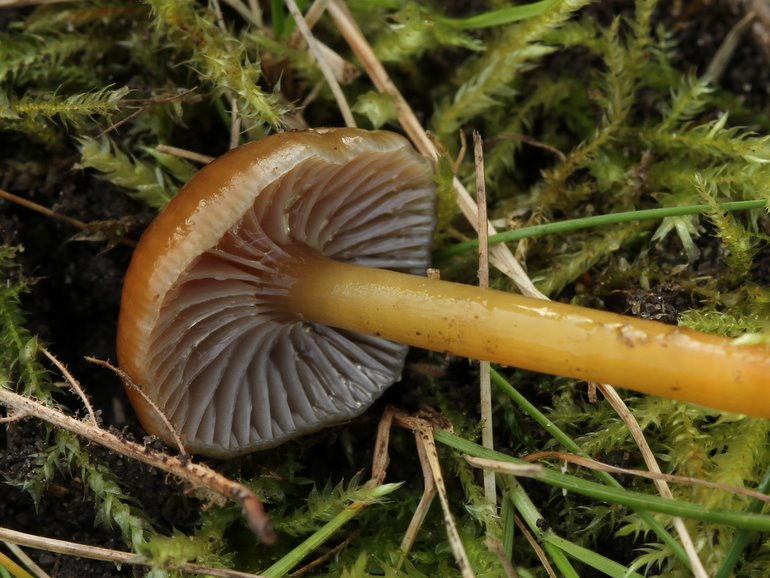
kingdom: Fungi
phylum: Basidiomycota
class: Agaricomycetes
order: Agaricales
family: Hygrophoraceae
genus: Gliophorus
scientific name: Gliophorus laetus
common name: brusk-vokshat
